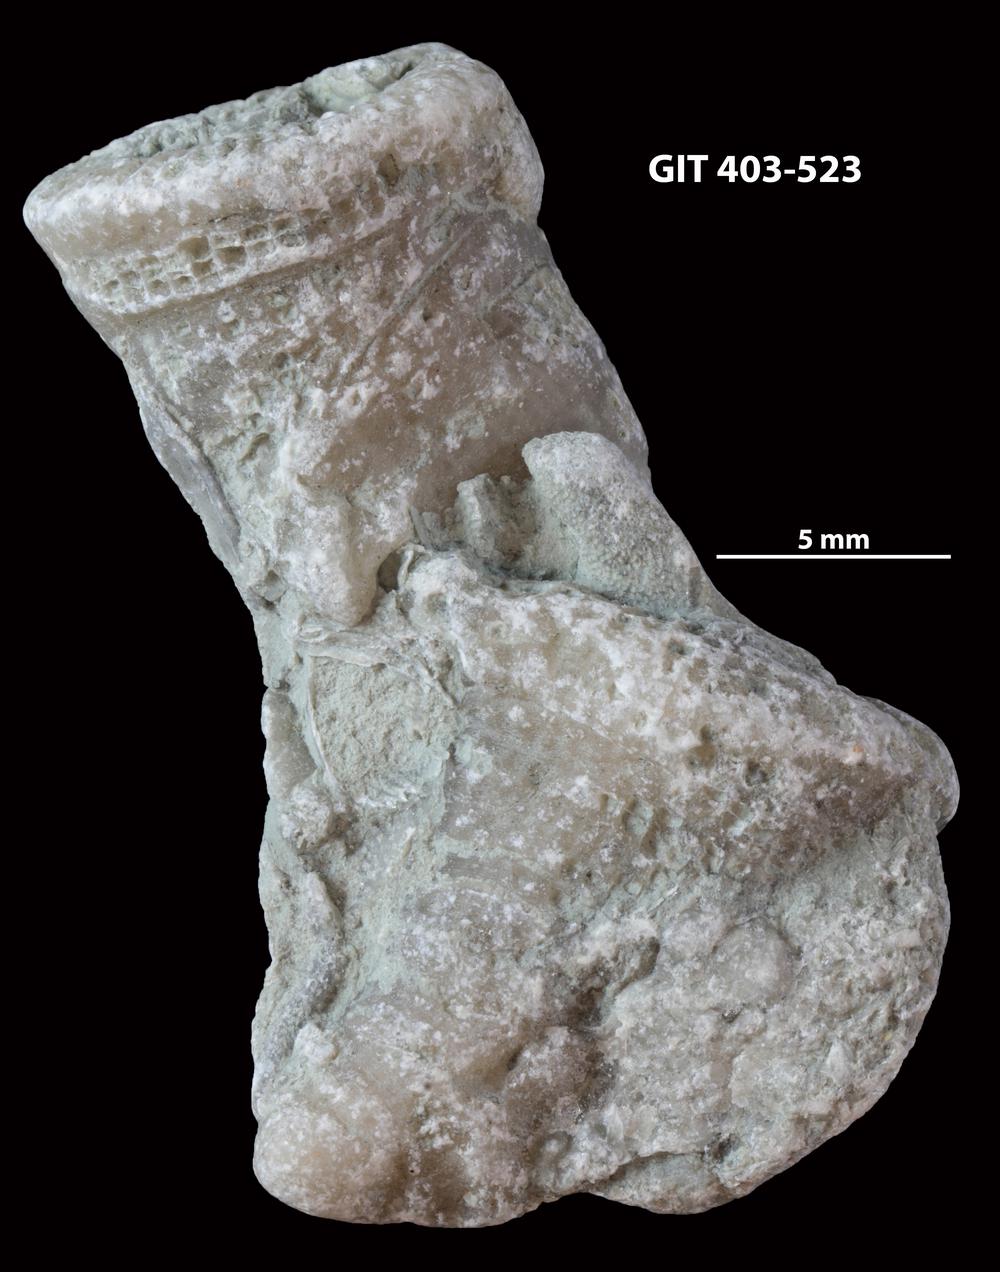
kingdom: Animalia
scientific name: Animalia
